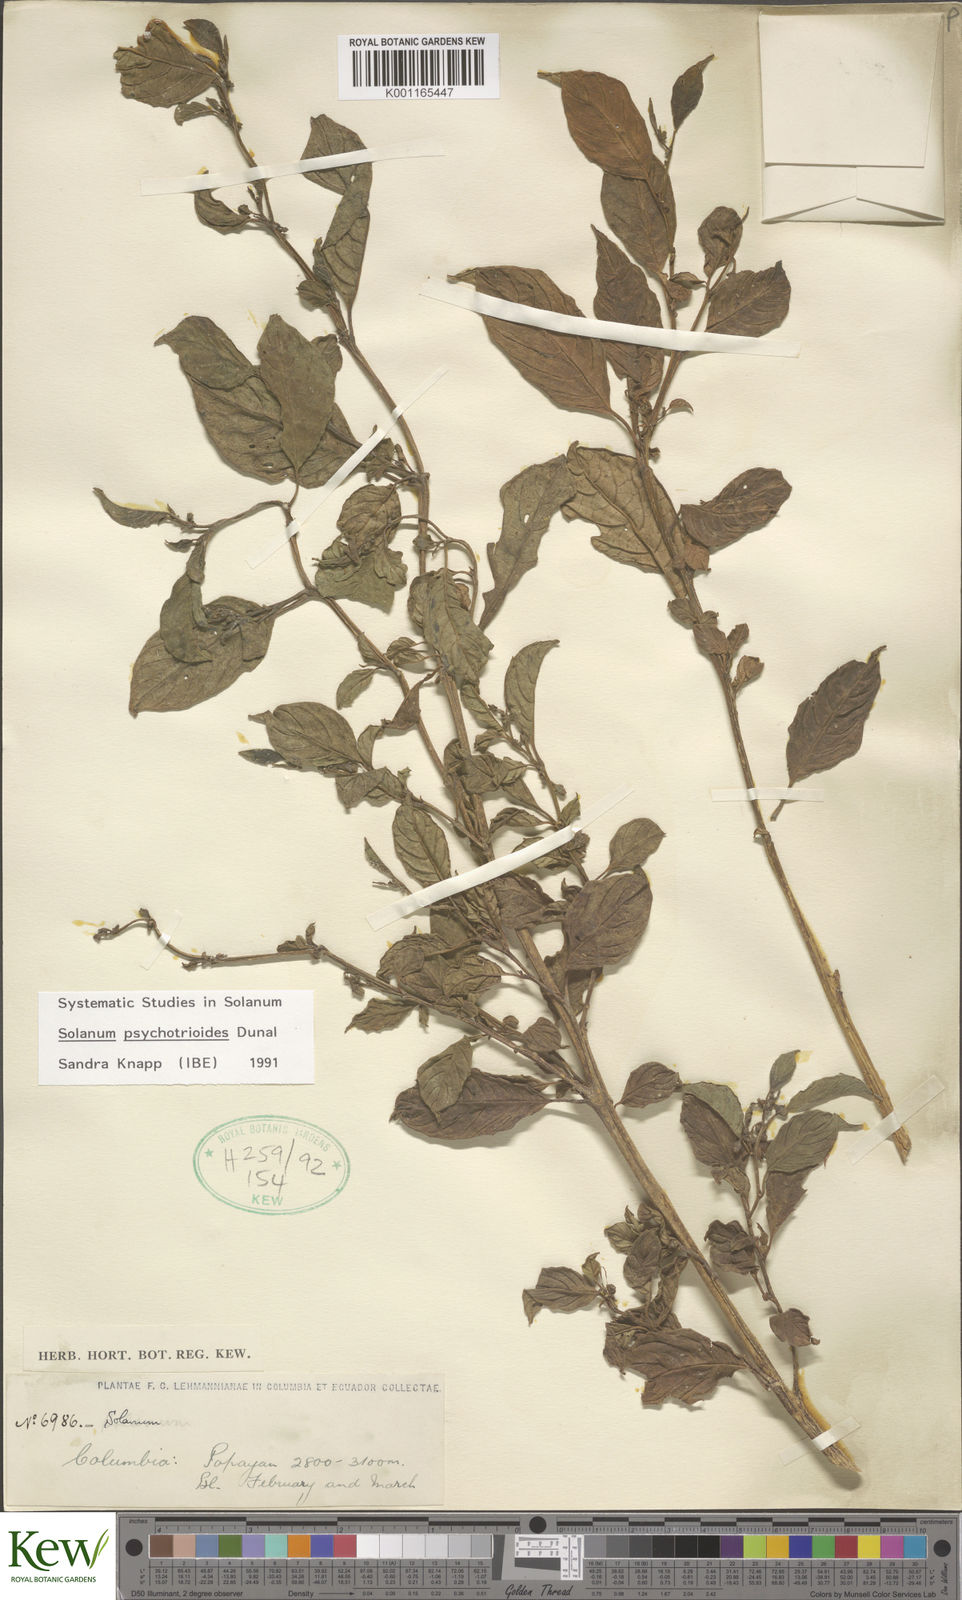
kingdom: Plantae
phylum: Tracheophyta
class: Magnoliopsida
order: Solanales
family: Solanaceae
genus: Solanum
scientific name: Solanum psychotrioides
